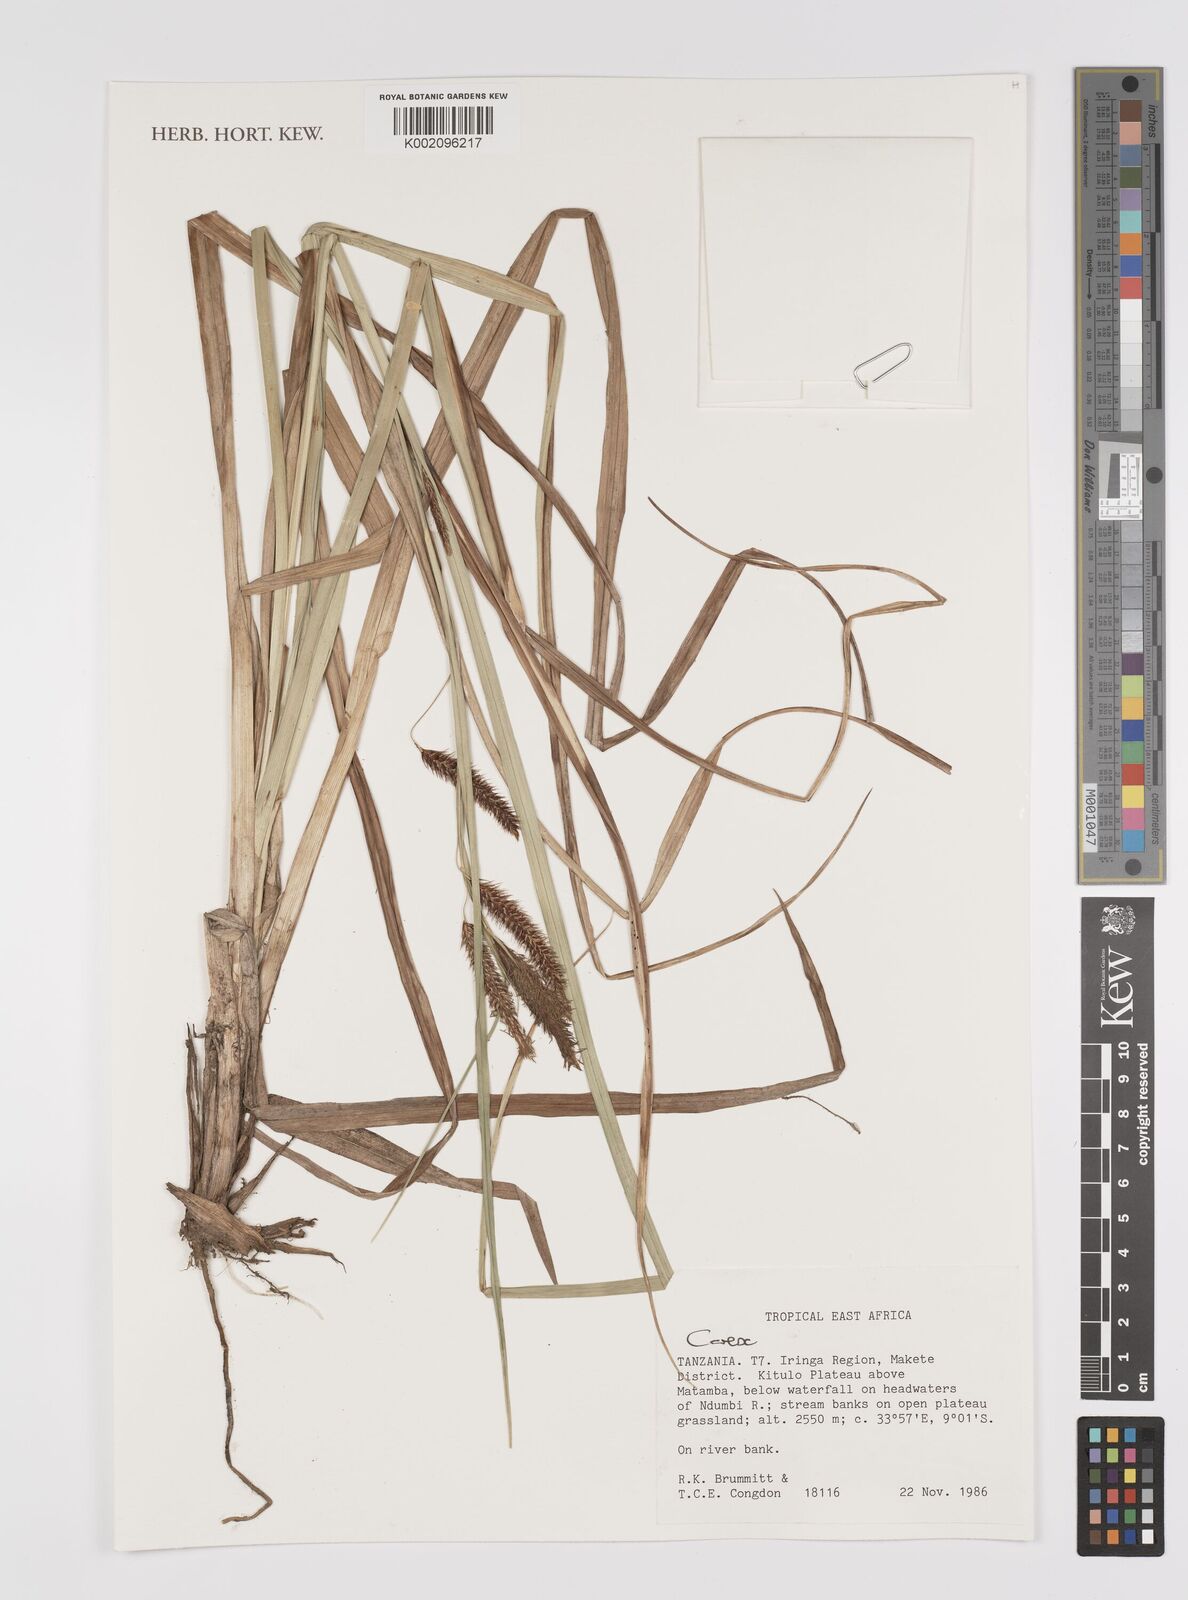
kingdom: Plantae
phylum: Tracheophyta
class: Liliopsida
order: Poales
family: Cyperaceae
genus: Carex
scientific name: Carex
